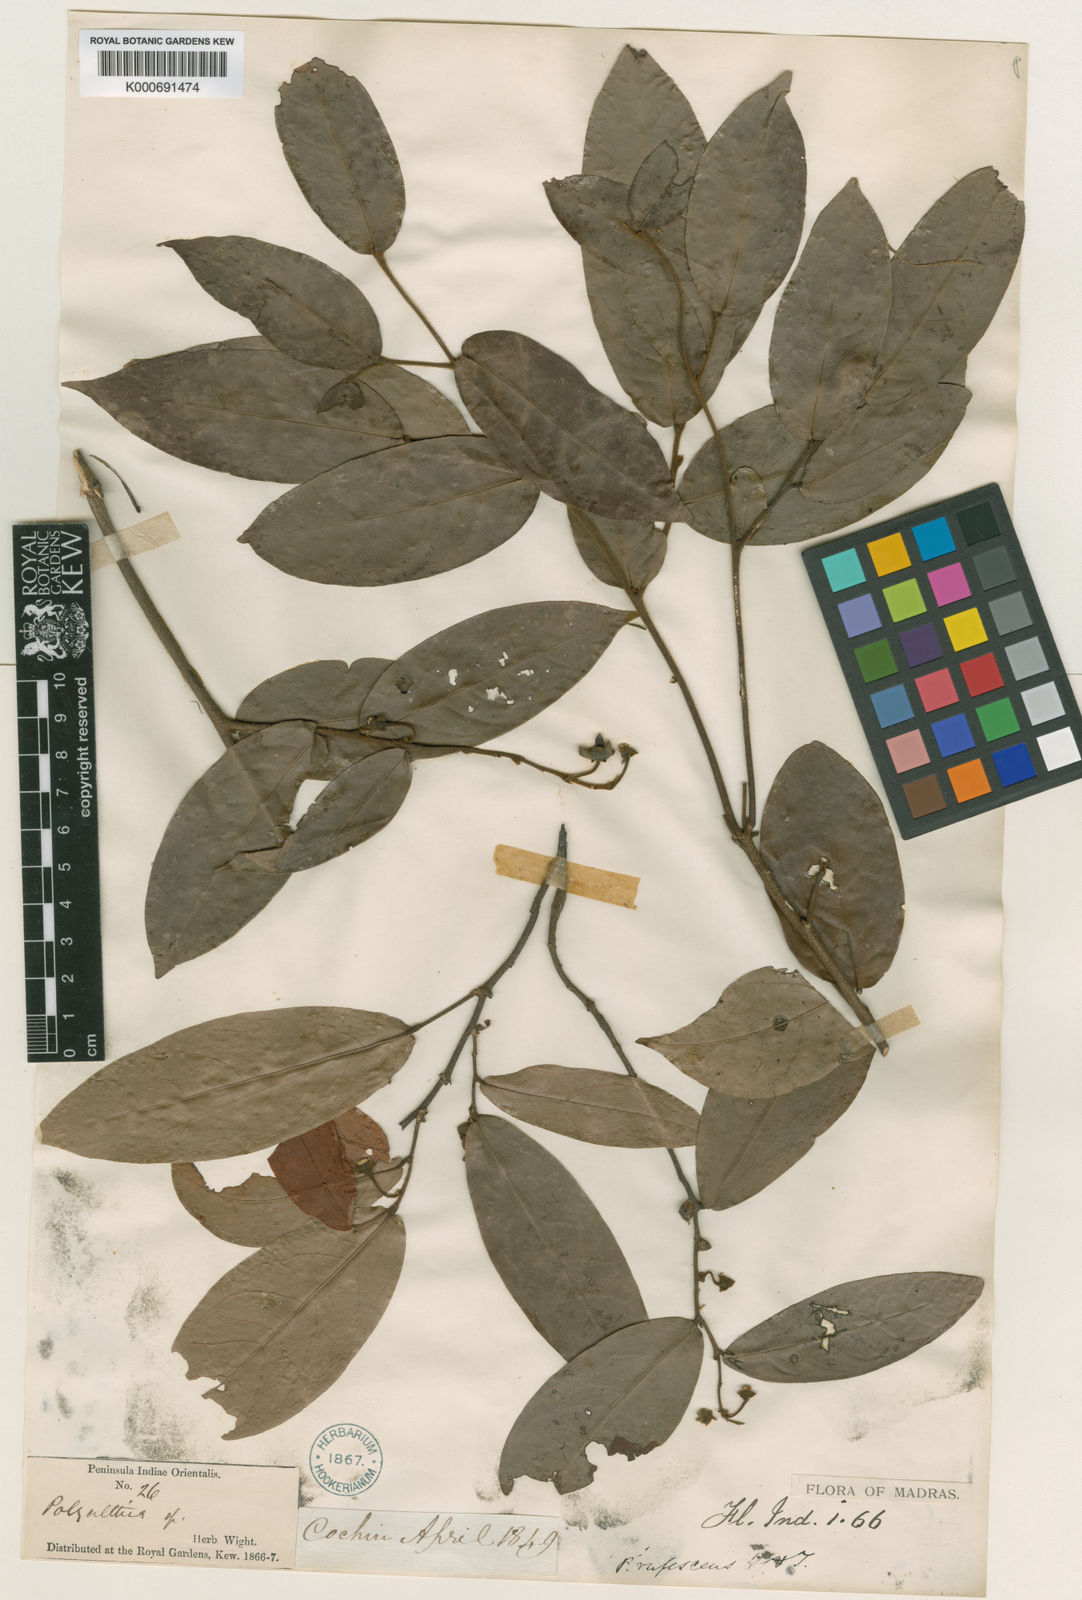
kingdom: Plantae
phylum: Tracheophyta
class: Magnoliopsida
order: Magnoliales
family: Annonaceae
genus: Polyalthia
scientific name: Polyalthia rufescens
